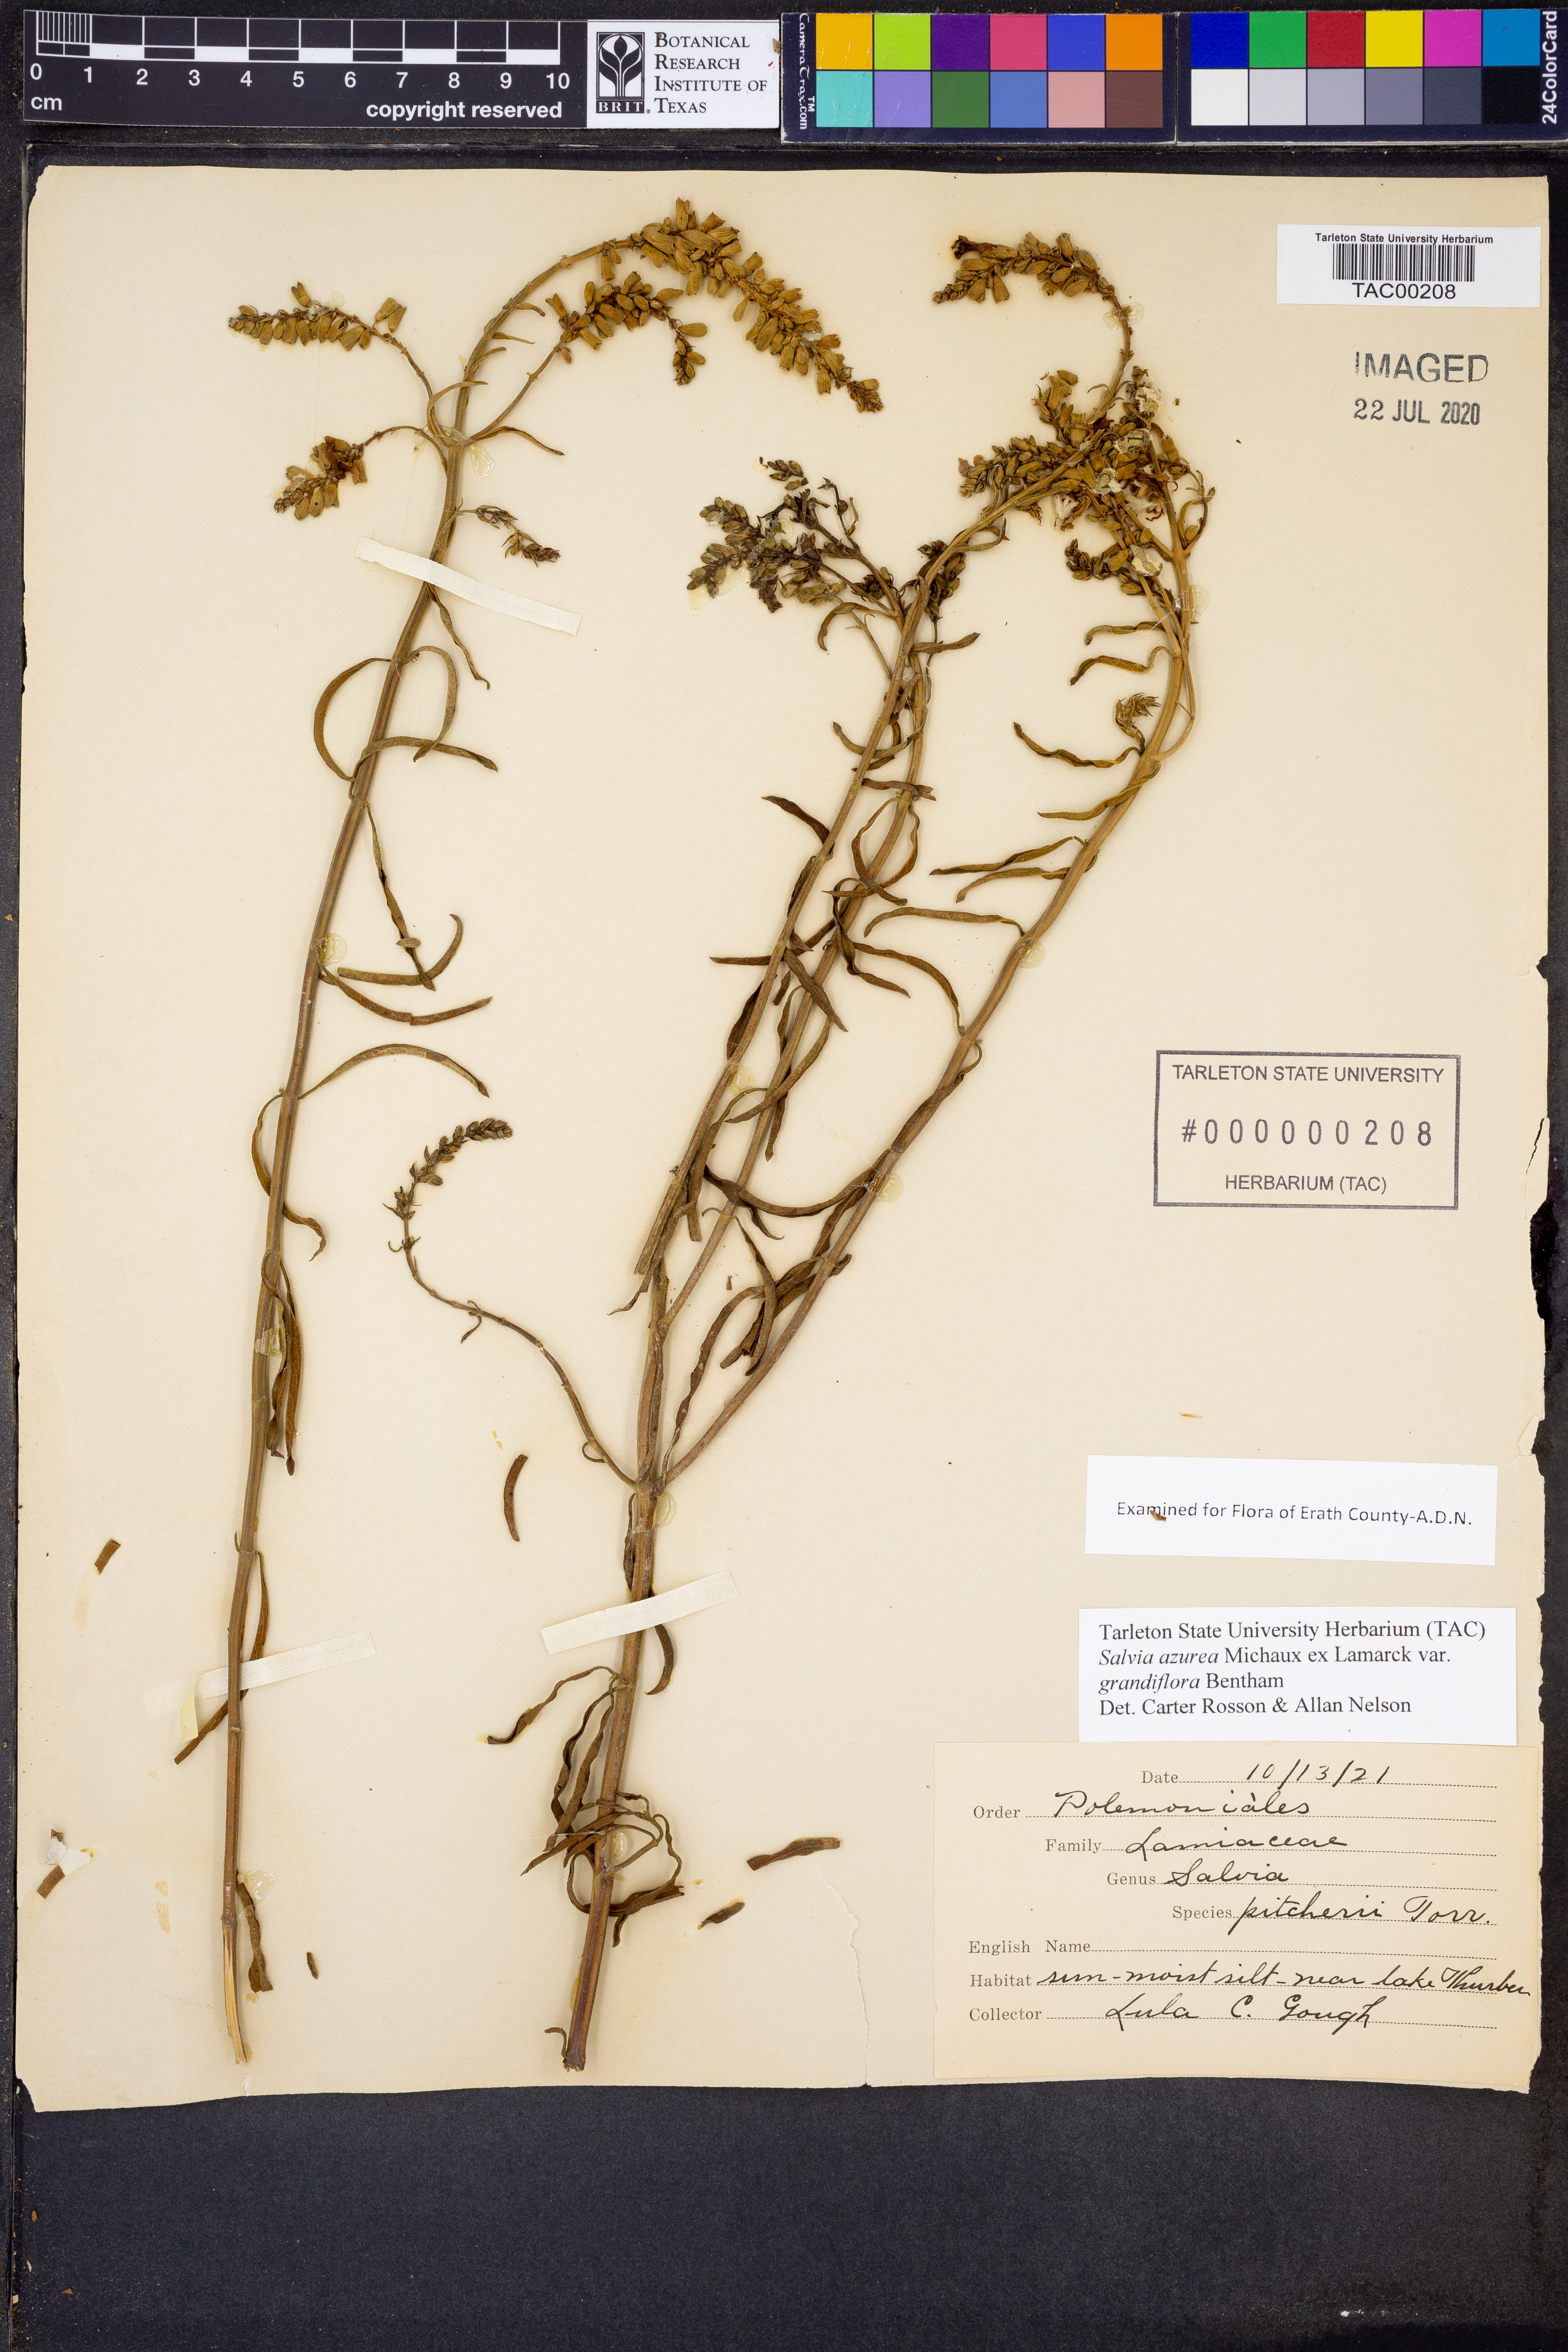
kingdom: Plantae
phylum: Tracheophyta
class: Magnoliopsida
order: Lamiales
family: Lamiaceae
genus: Salvia
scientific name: Salvia azurea
